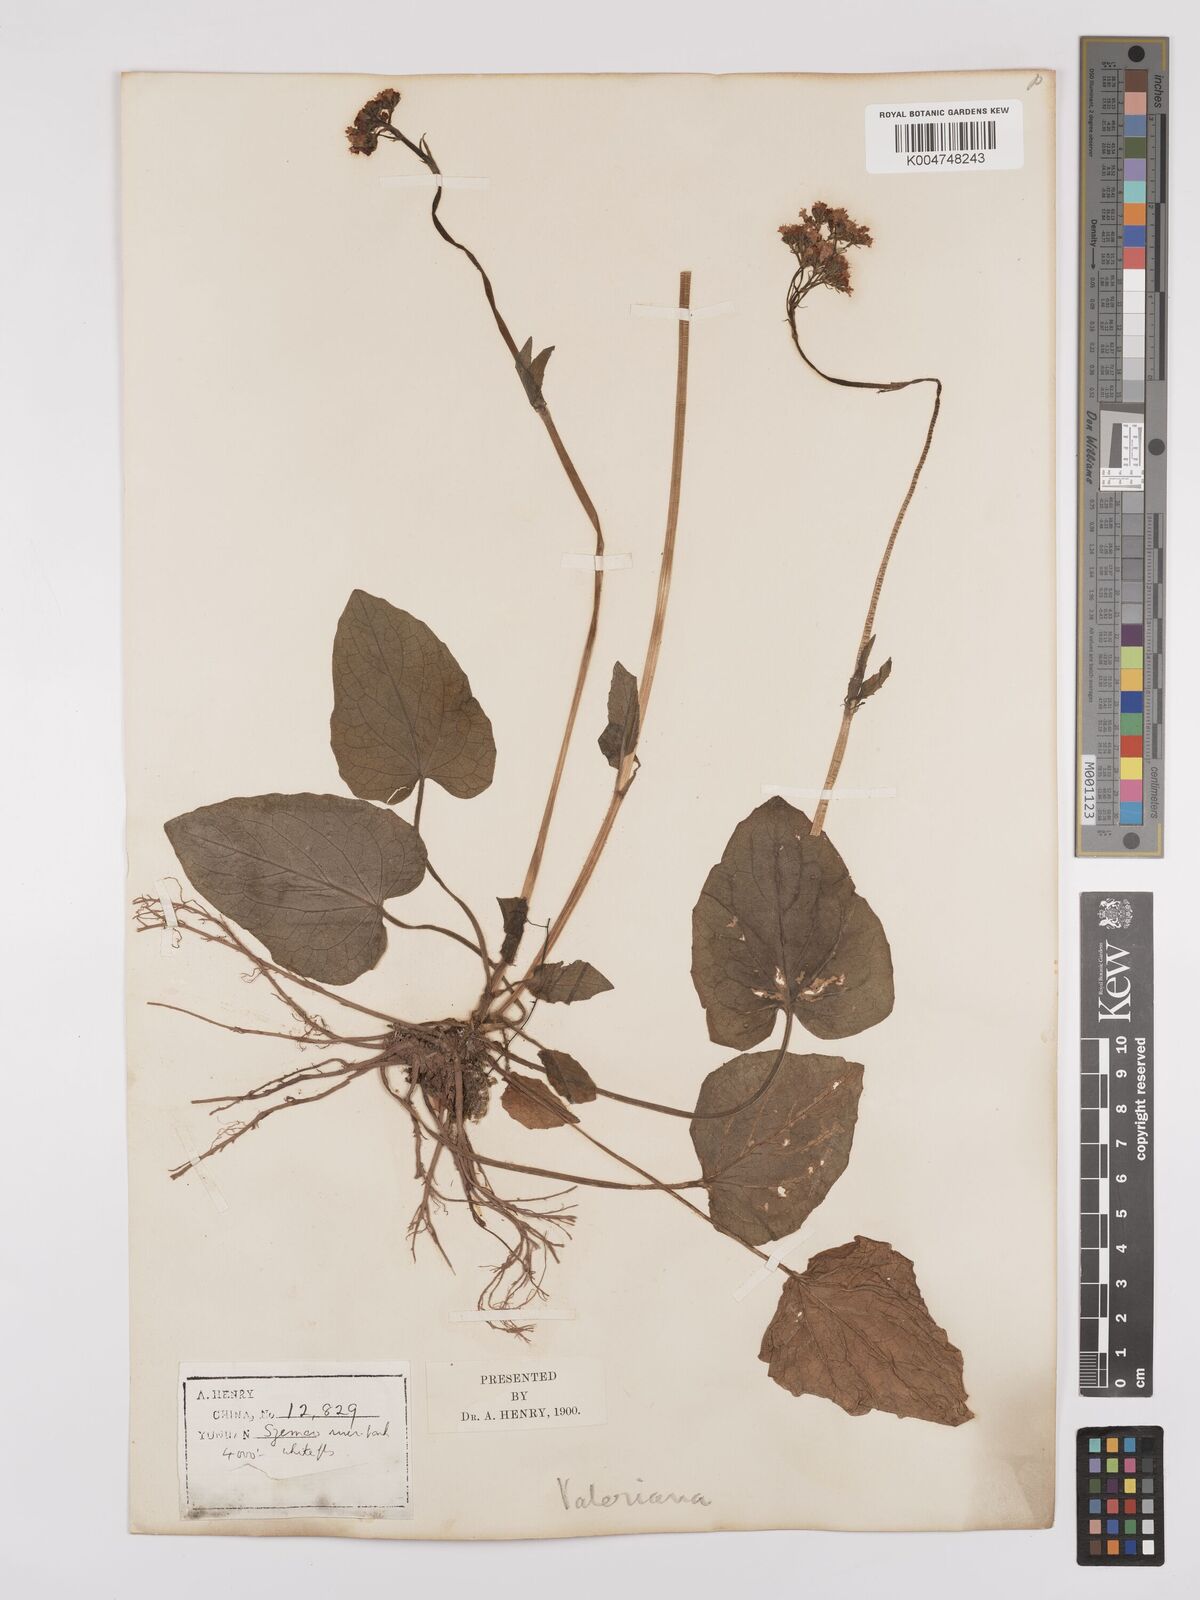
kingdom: Plantae
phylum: Tracheophyta
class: Magnoliopsida
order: Dipsacales
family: Caprifoliaceae
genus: Valeriana
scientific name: Valeriana
